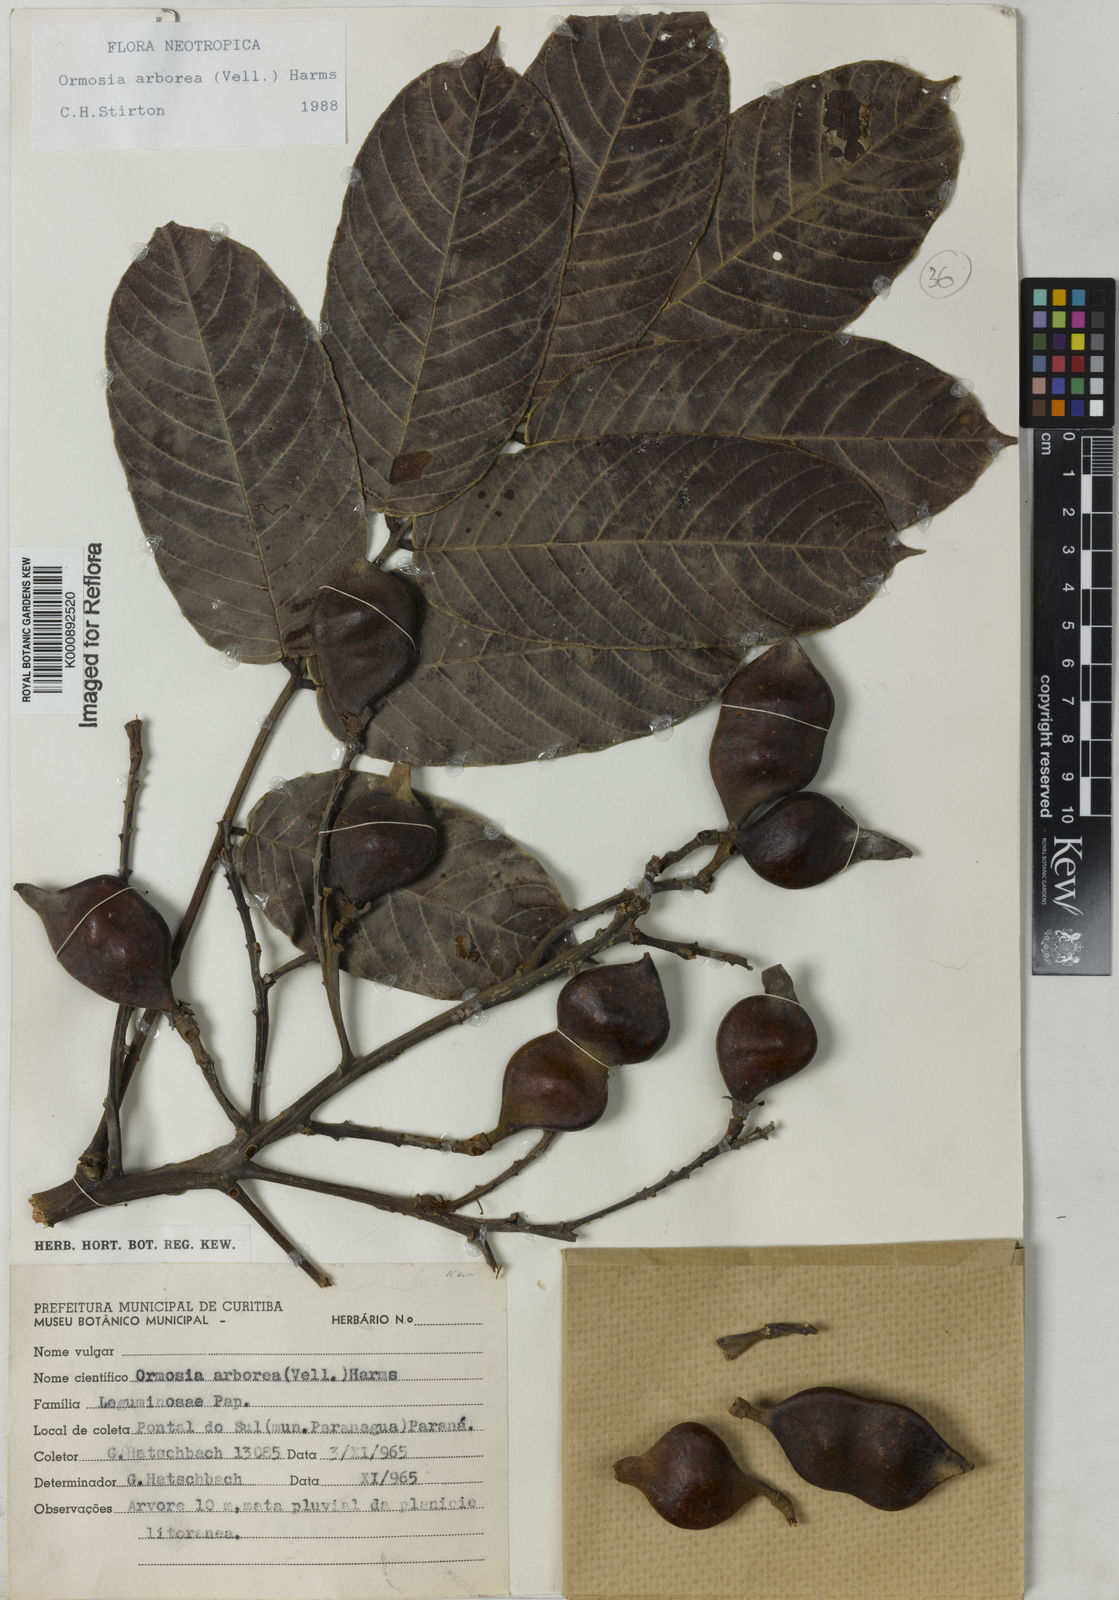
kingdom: Plantae
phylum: Tracheophyta
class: Magnoliopsida
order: Fabales
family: Fabaceae
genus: Ormosia
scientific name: Ormosia arborea
